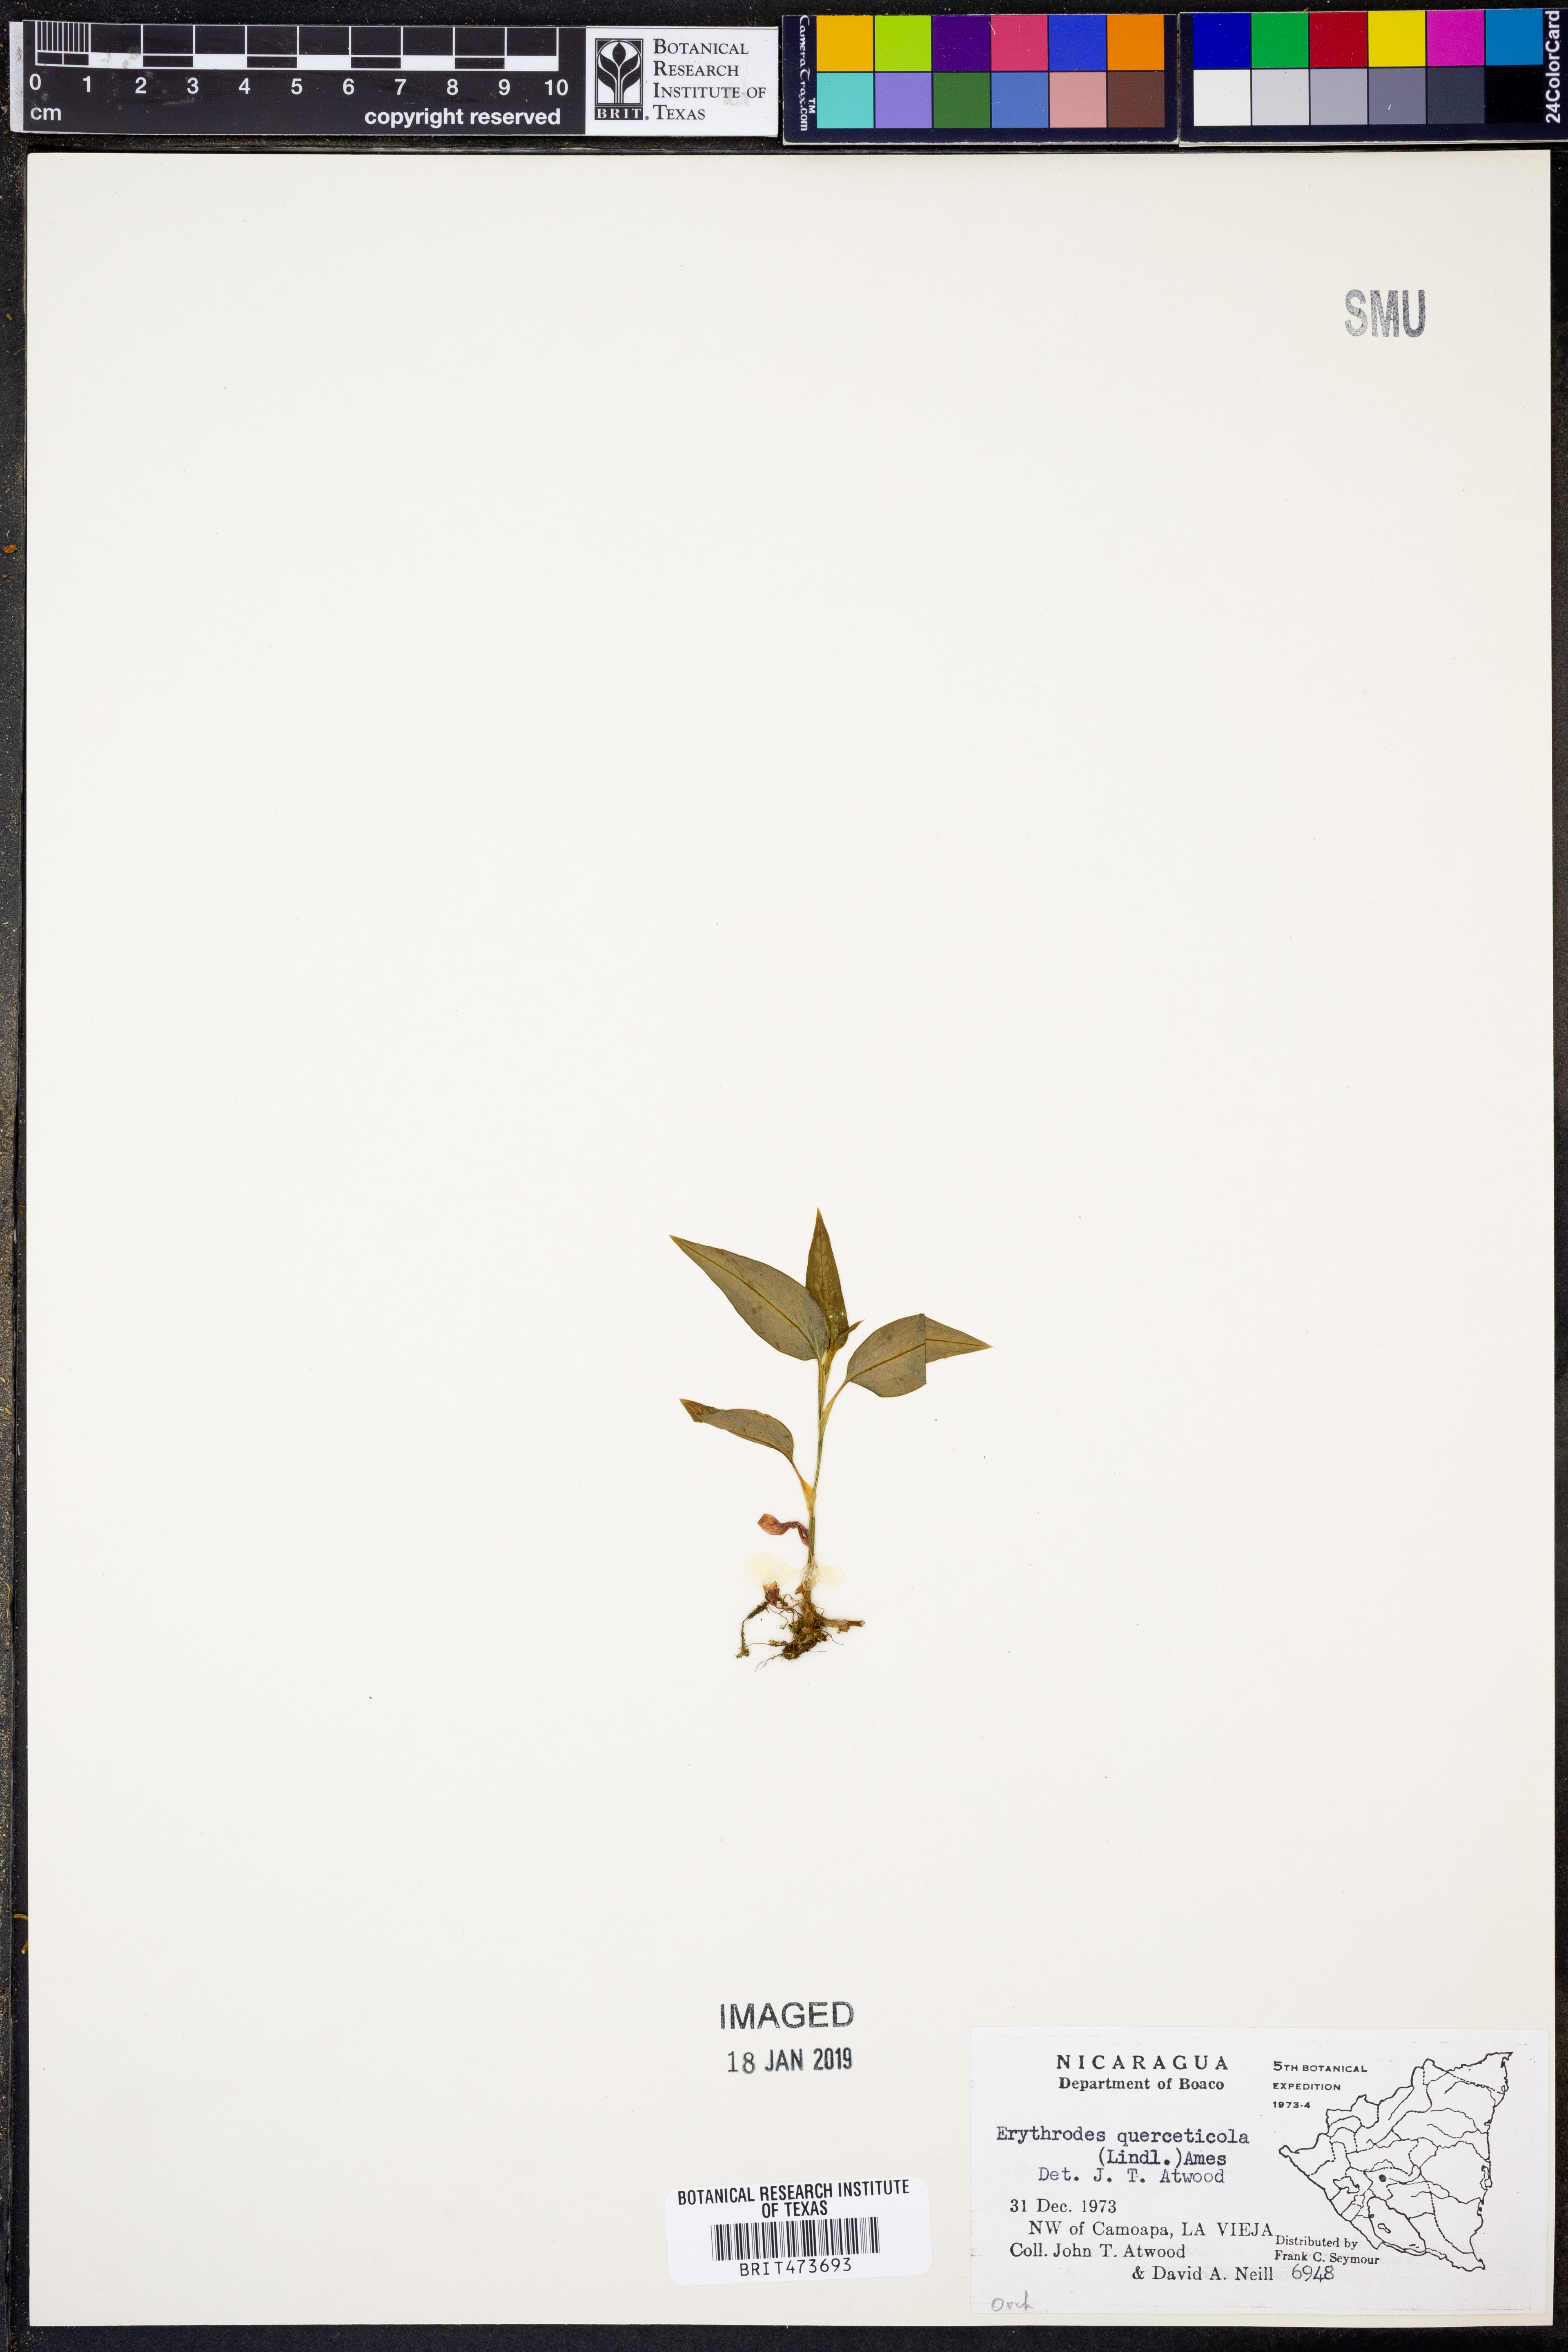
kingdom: Plantae
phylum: Tracheophyta
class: Liliopsida
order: Asparagales
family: Orchidaceae
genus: Aspidogyne
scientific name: Aspidogyne querceticola
